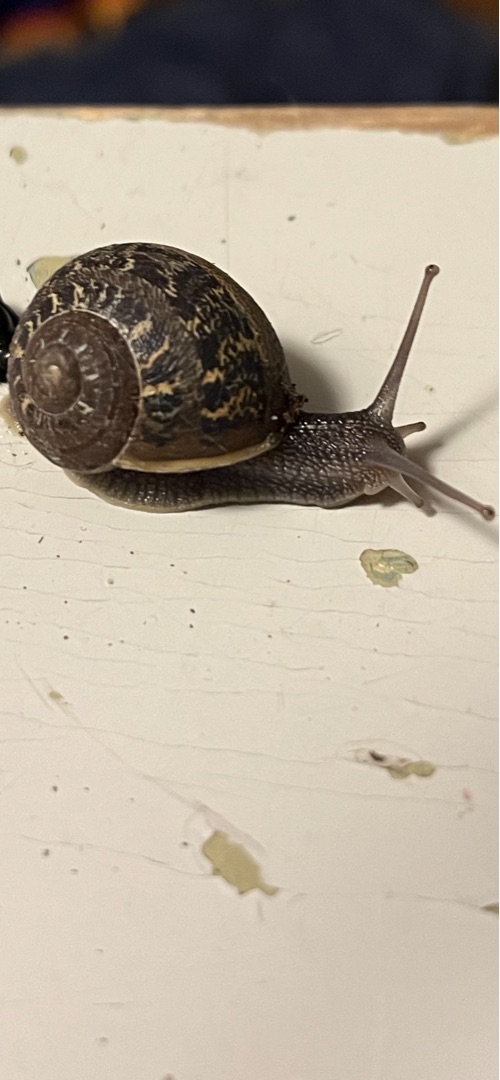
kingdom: Animalia
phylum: Mollusca
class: Gastropoda
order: Stylommatophora
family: Helicidae
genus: Cornu
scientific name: Cornu aspersum
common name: Plettet voldsnegl
